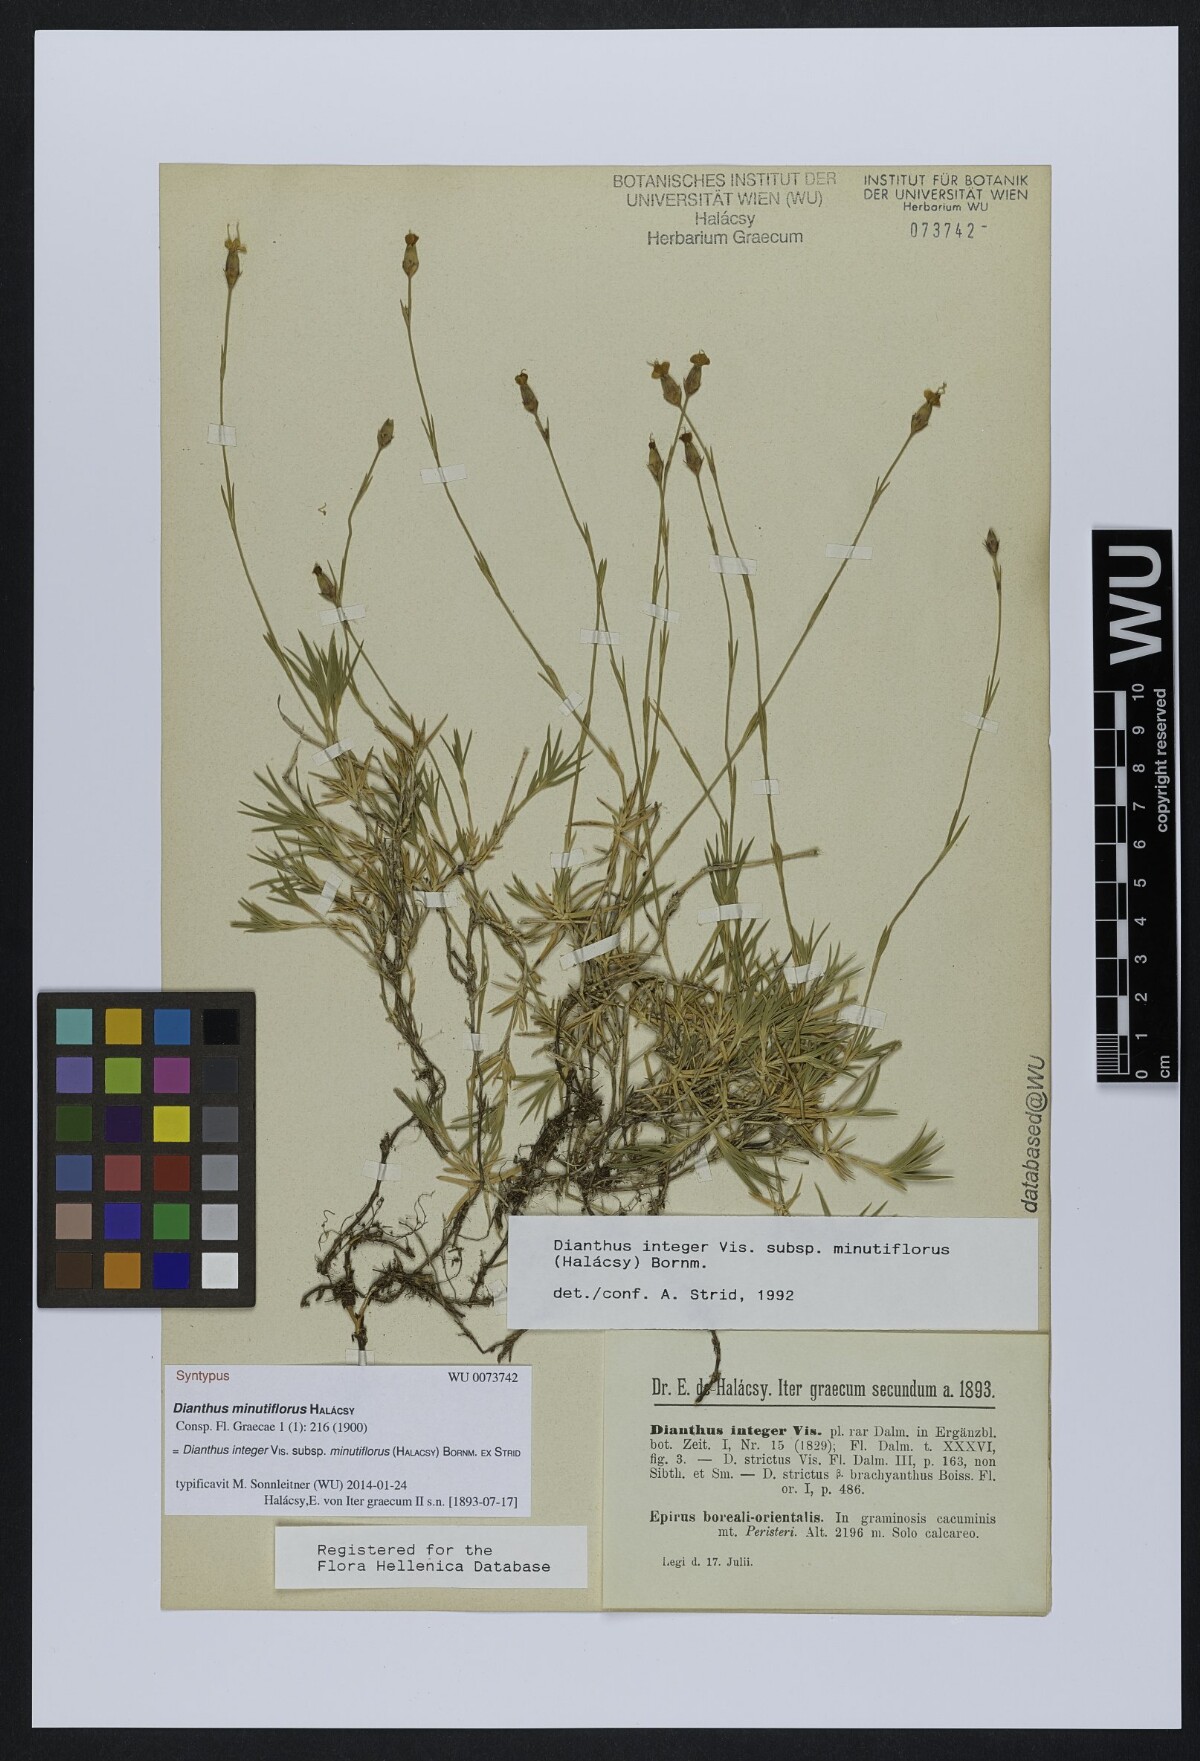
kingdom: Plantae
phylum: Tracheophyta
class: Magnoliopsida
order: Caryophyllales
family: Caryophyllaceae
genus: Dianthus
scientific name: Dianthus integer
